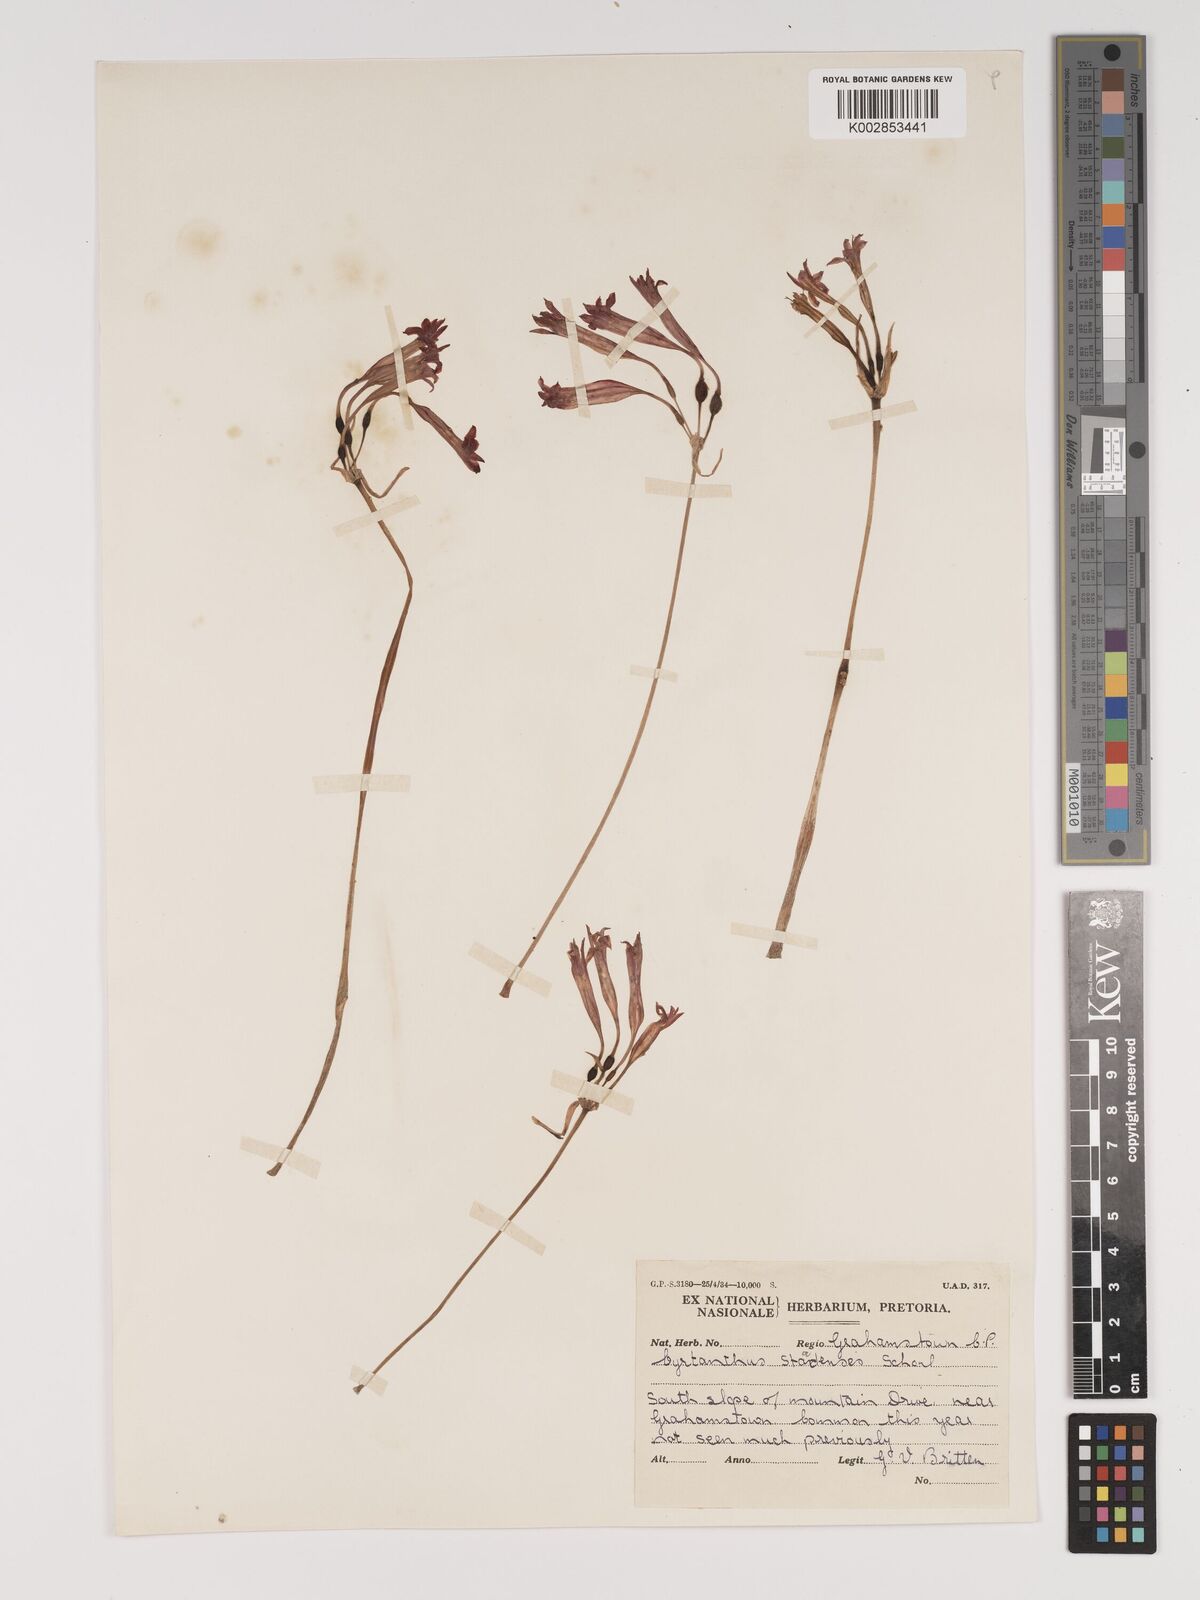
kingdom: Plantae
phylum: Tracheophyta
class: Liliopsida
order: Asparagales
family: Amaryllidaceae
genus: Cyrtanthus
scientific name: Cyrtanthus staadensis
